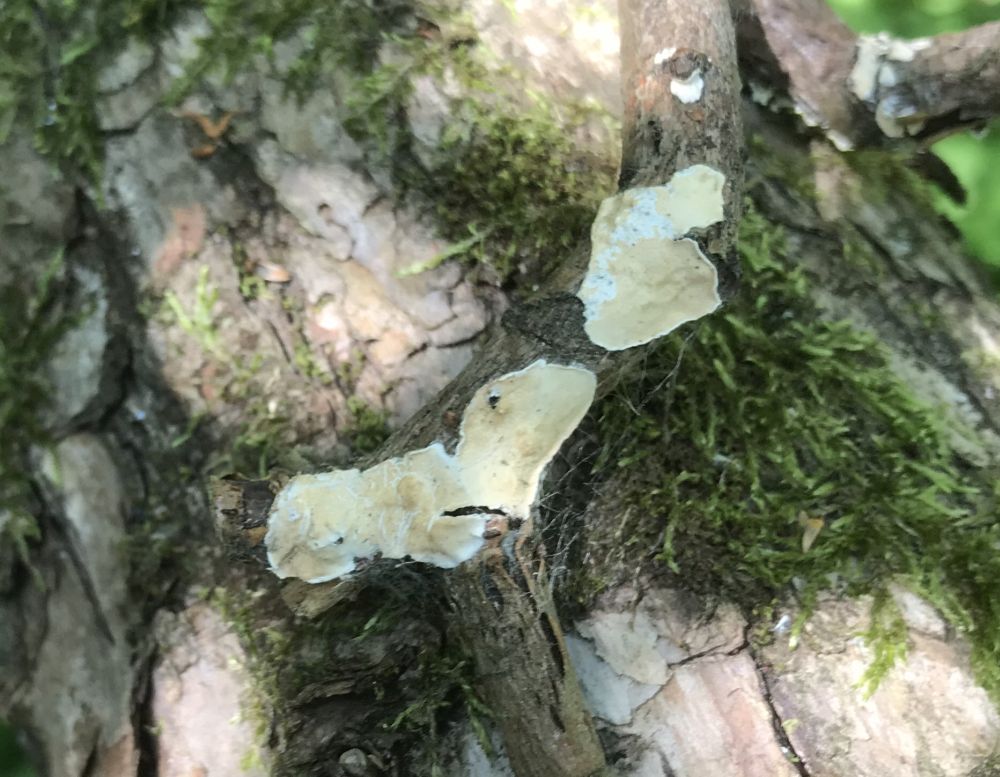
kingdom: Fungi
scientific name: Fungi
